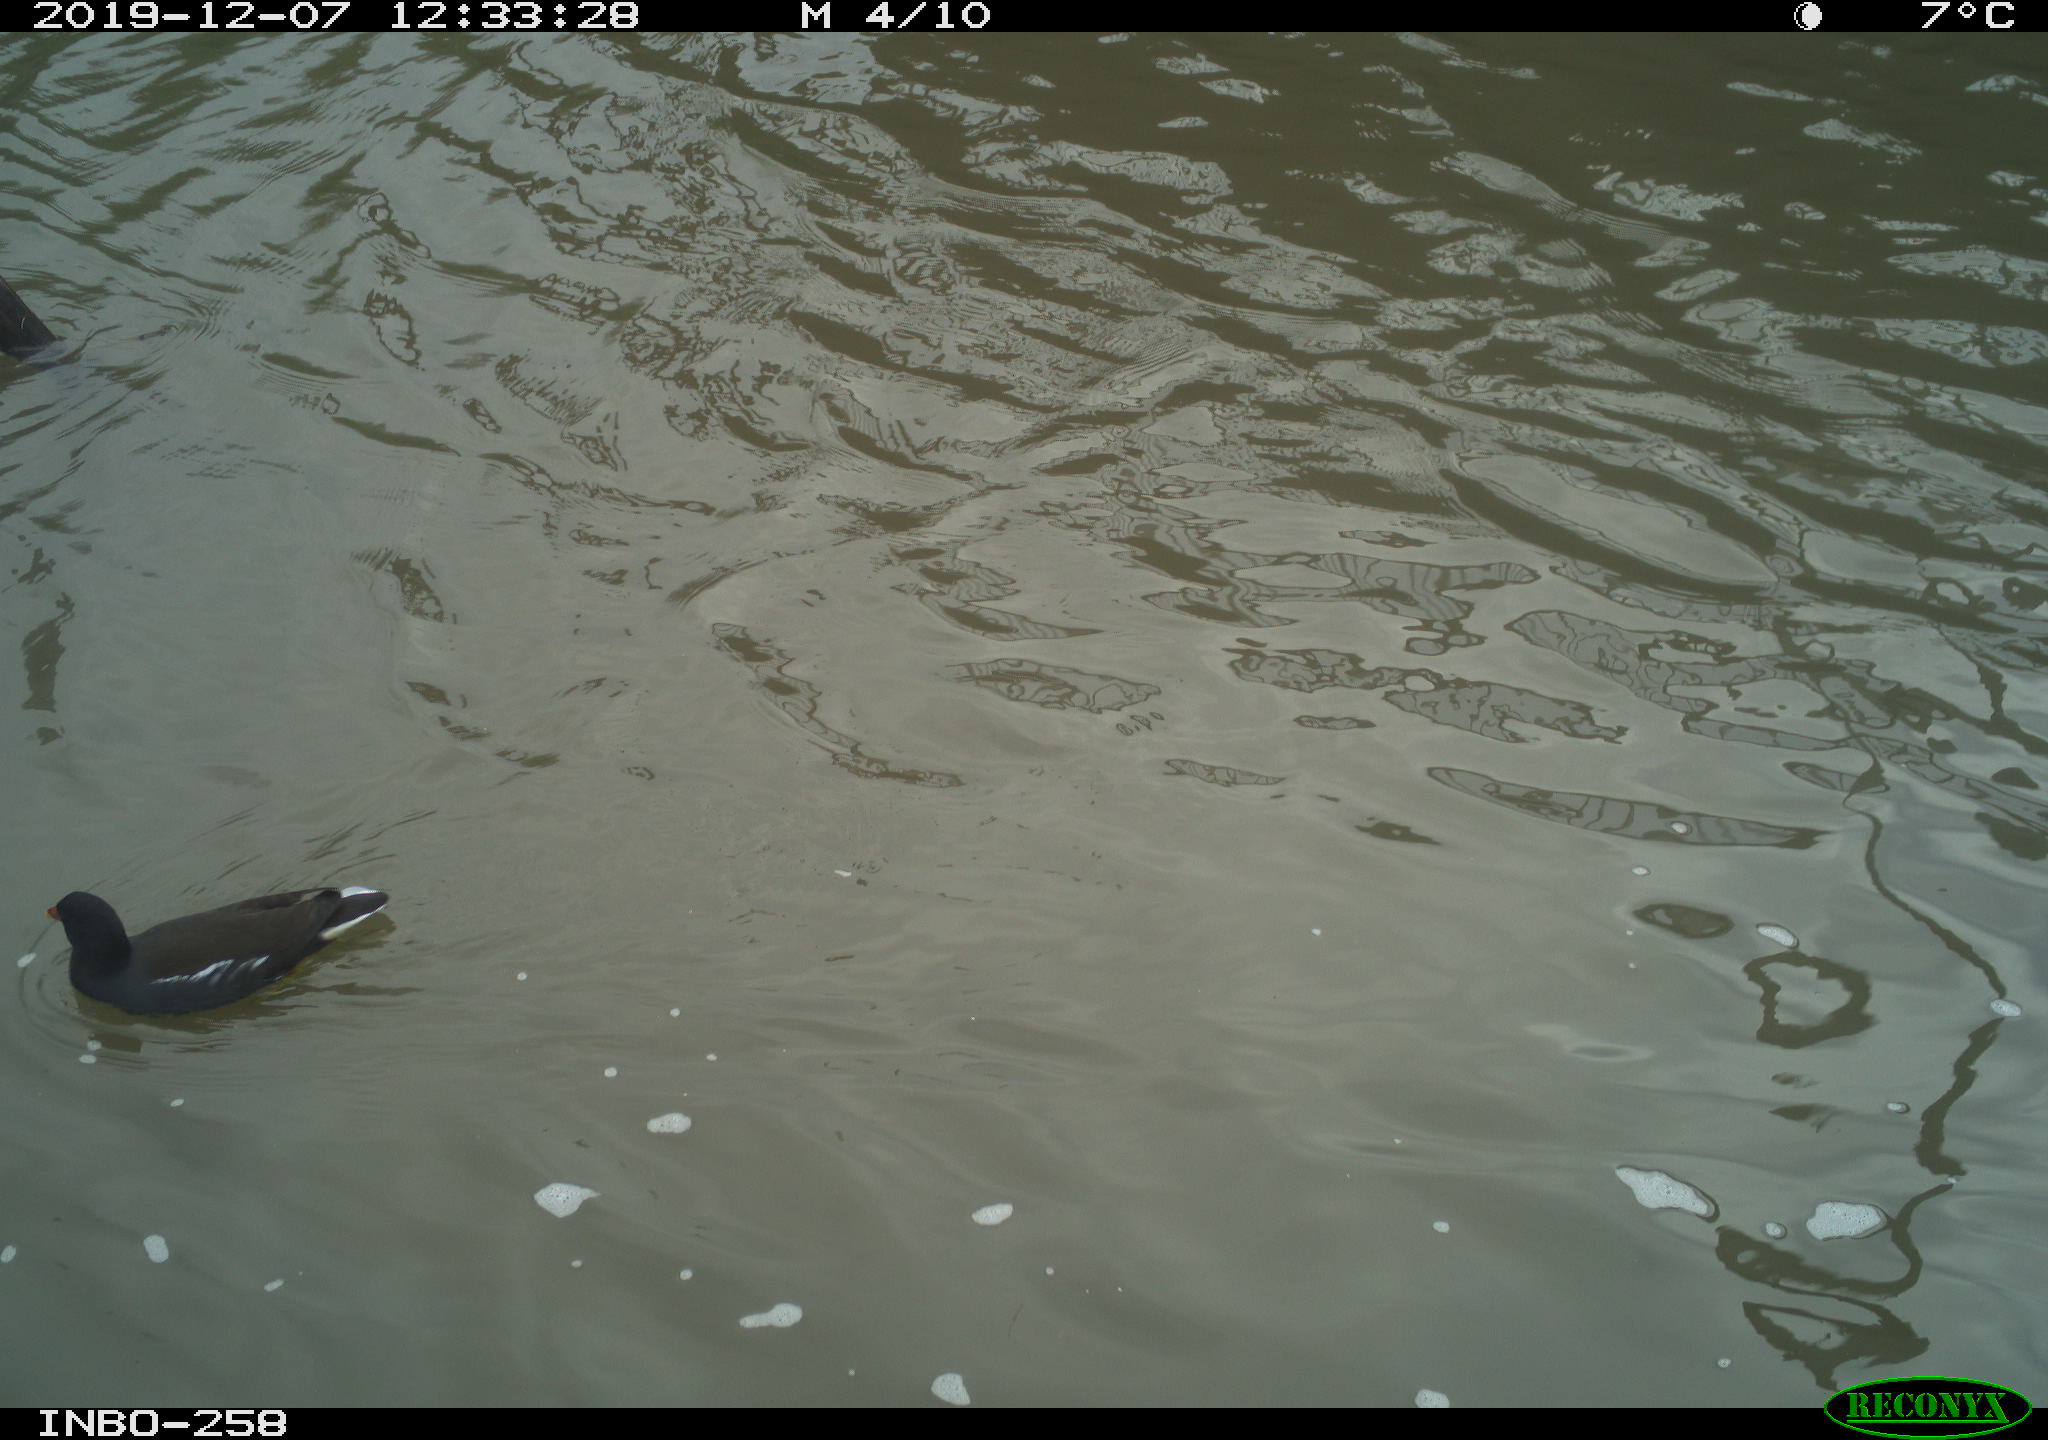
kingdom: Animalia
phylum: Chordata
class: Aves
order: Gruiformes
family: Rallidae
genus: Gallinula
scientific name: Gallinula chloropus
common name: Common moorhen
